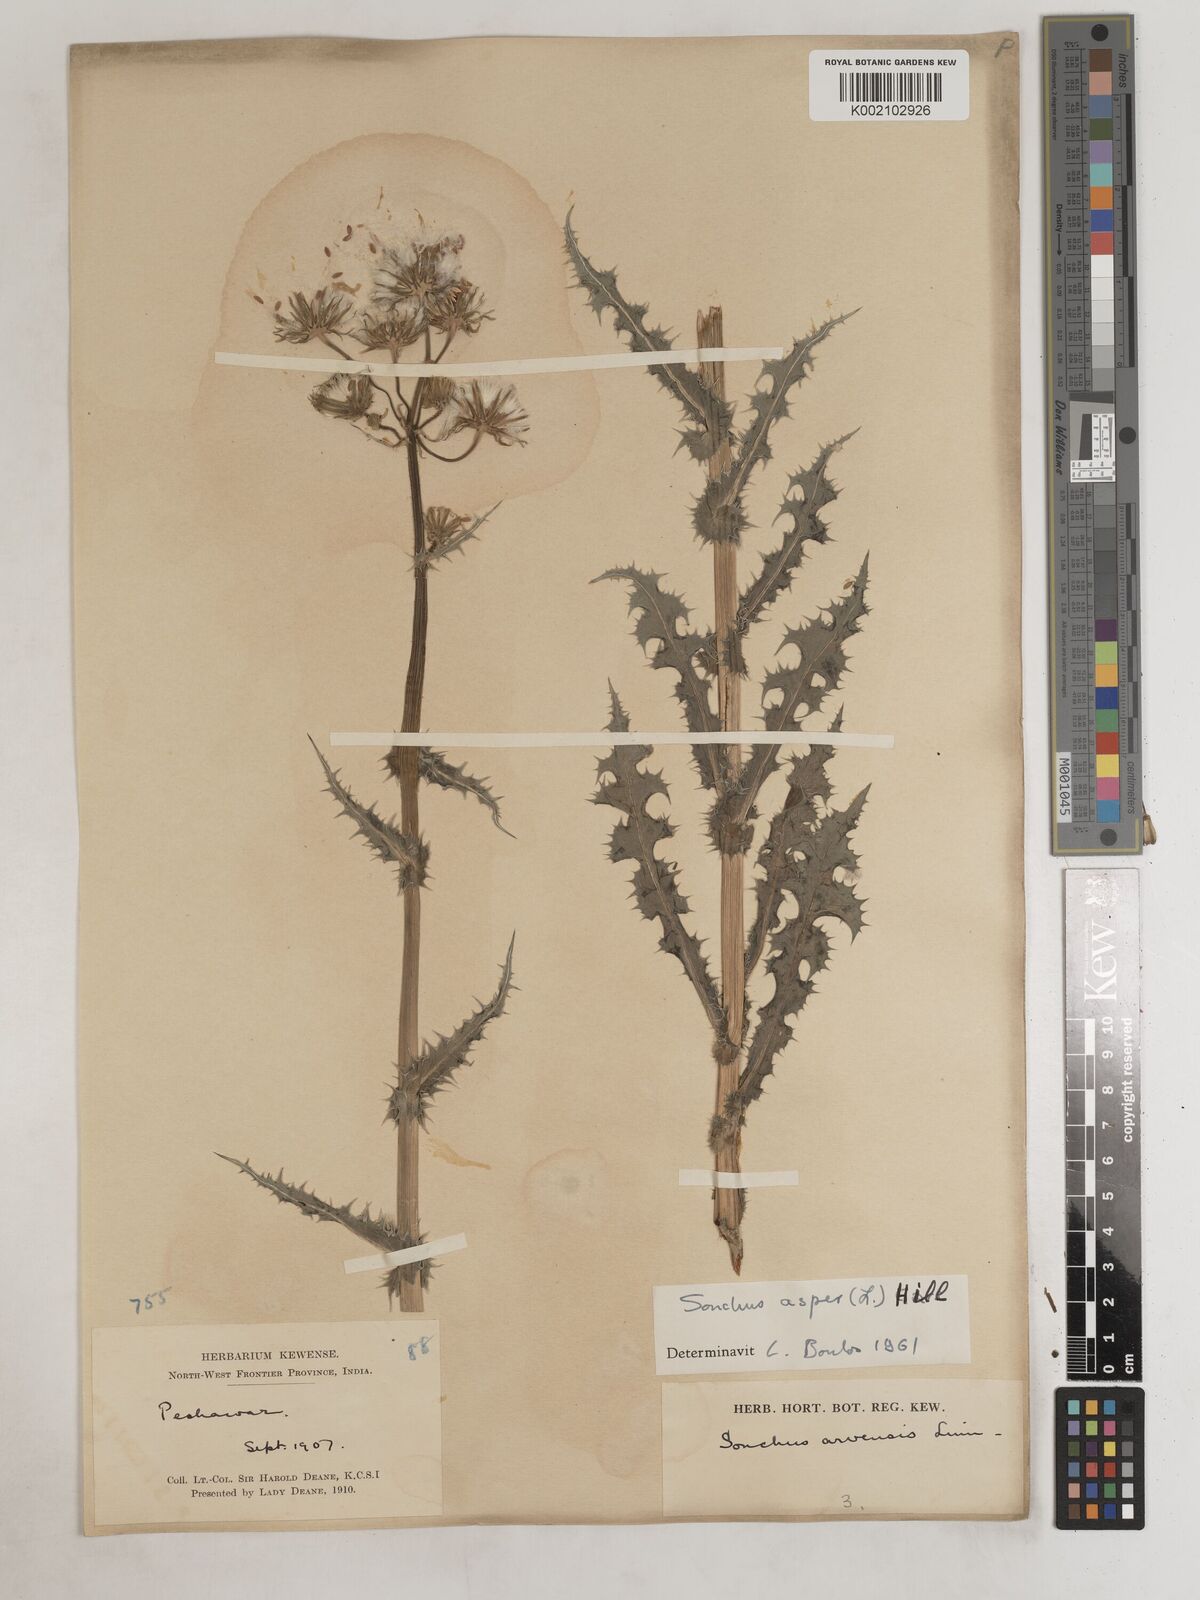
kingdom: Plantae
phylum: Tracheophyta
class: Magnoliopsida
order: Asterales
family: Asteraceae
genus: Sonchus
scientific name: Sonchus arvensis
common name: Perennial sow-thistle
